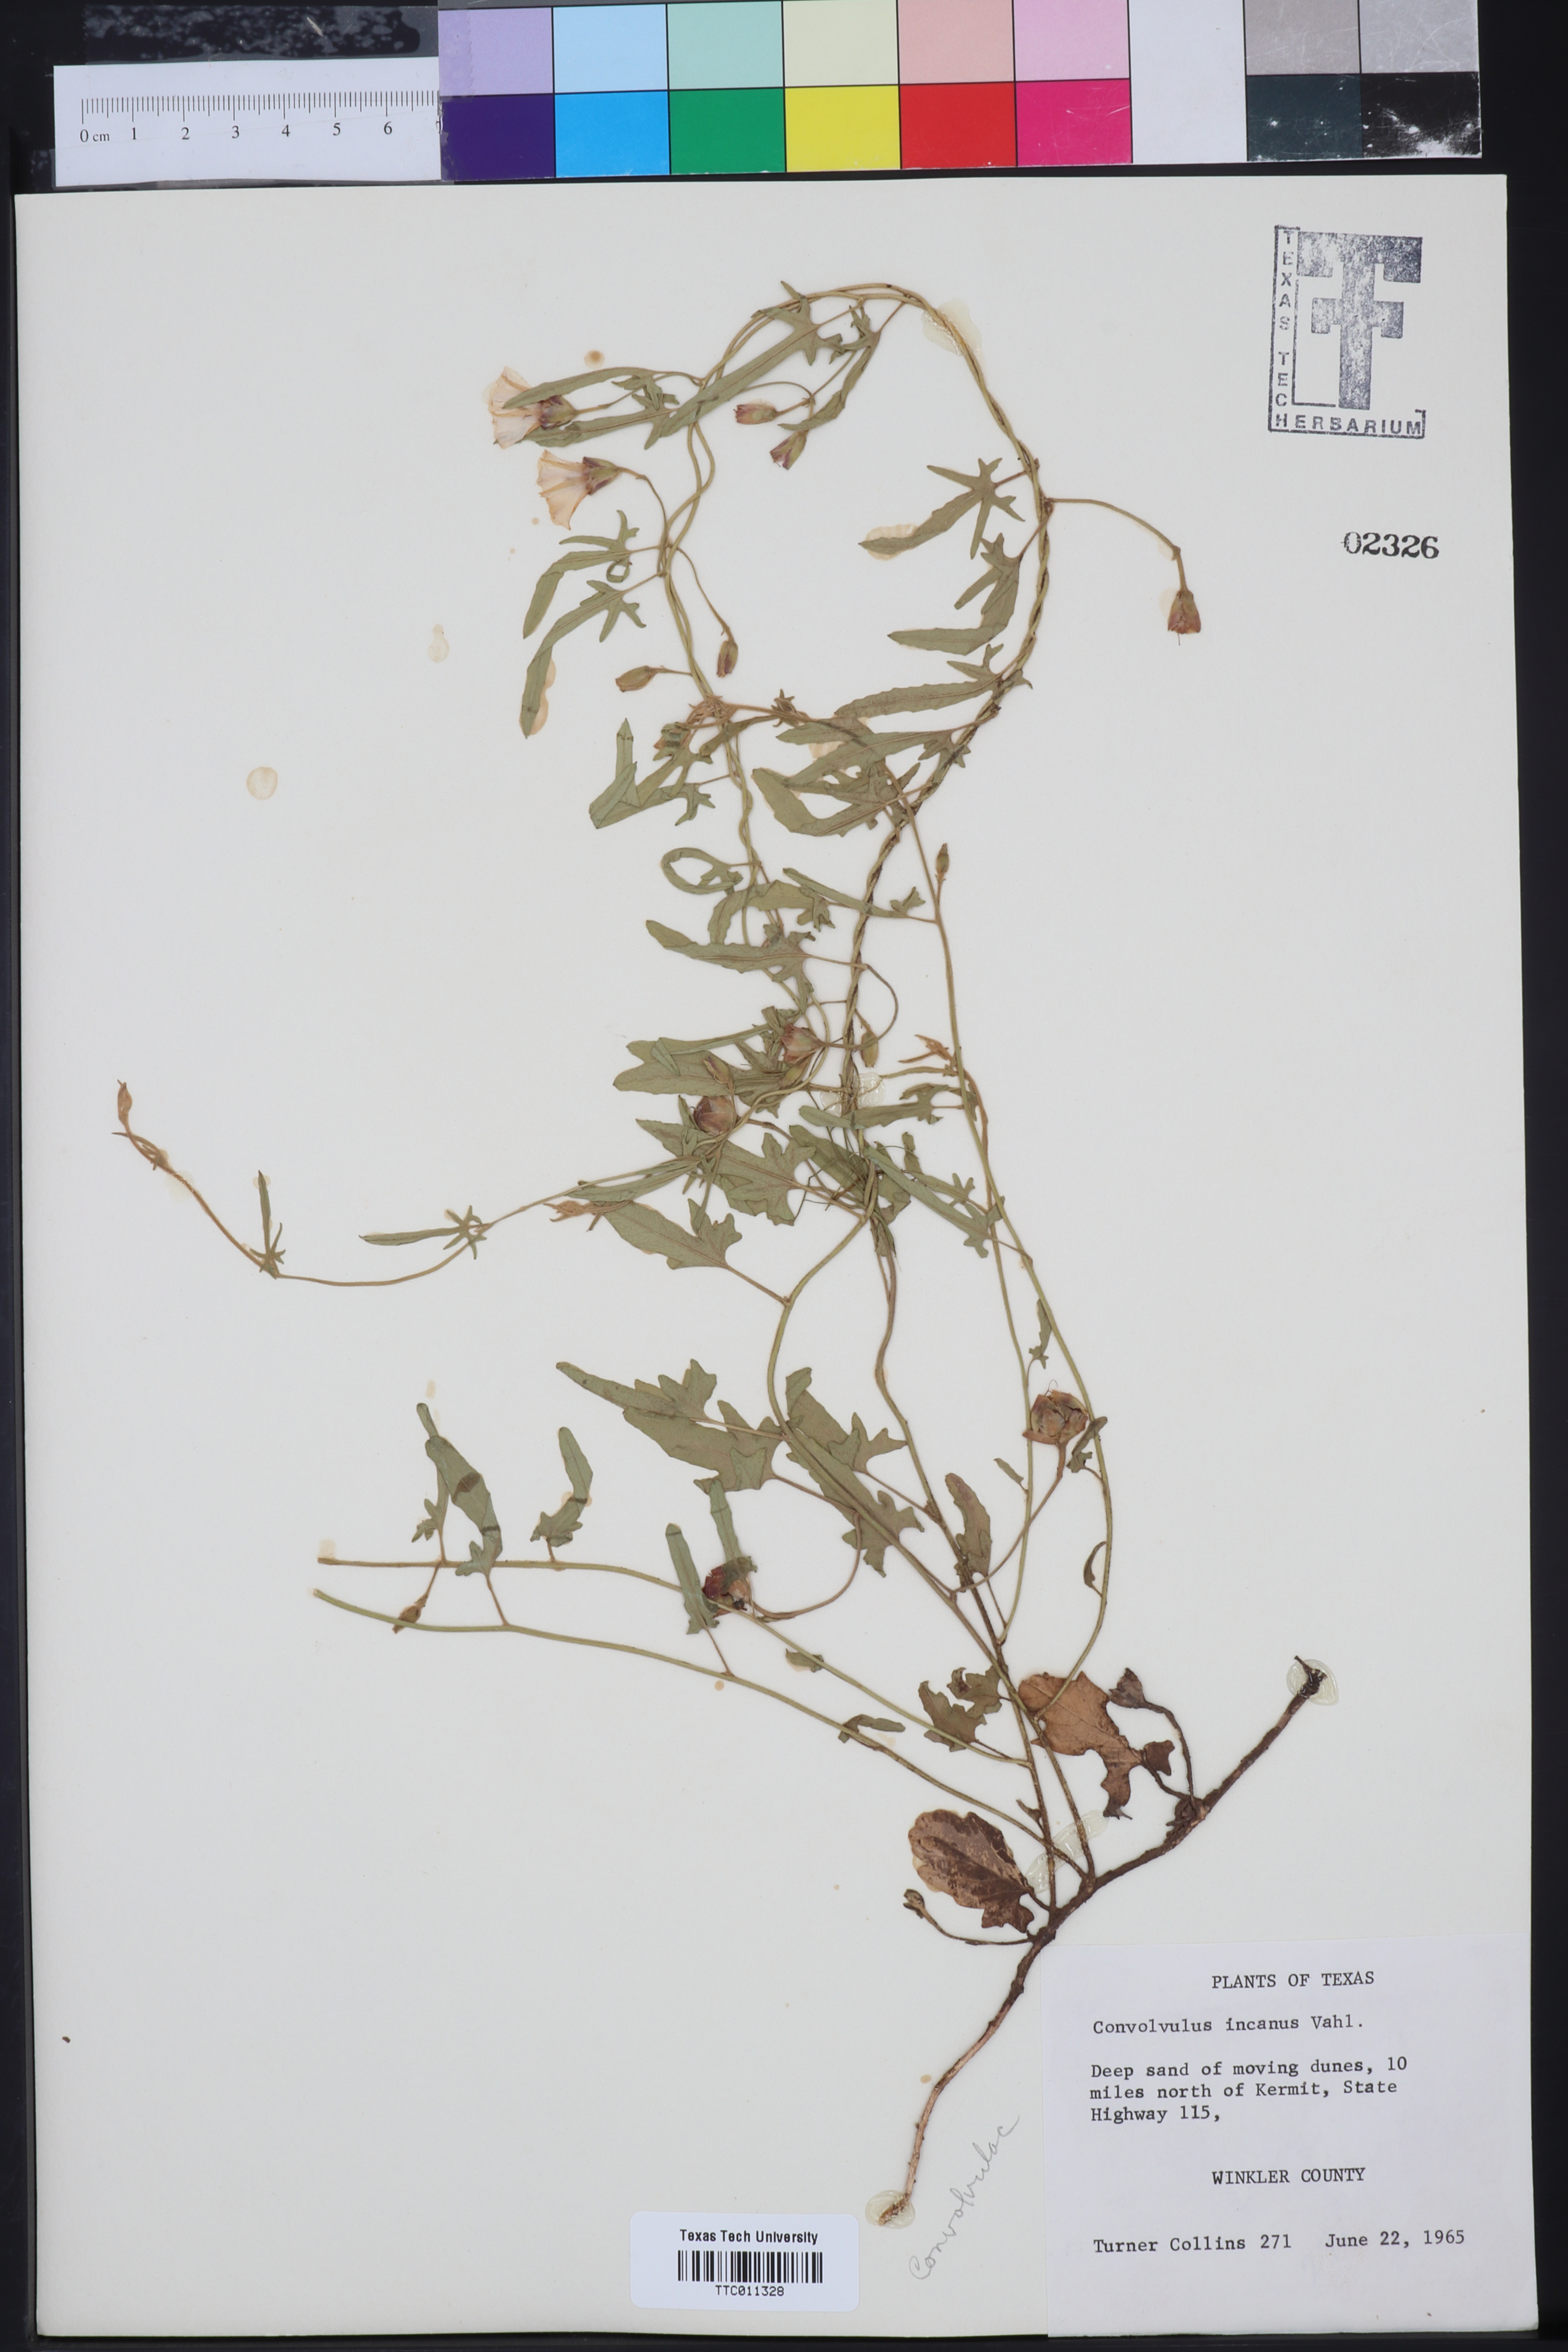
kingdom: Plantae
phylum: Tracheophyta
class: Magnoliopsida
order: Solanales
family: Convolvulaceae
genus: Convolvulus
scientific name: Convolvulus hermanniae
